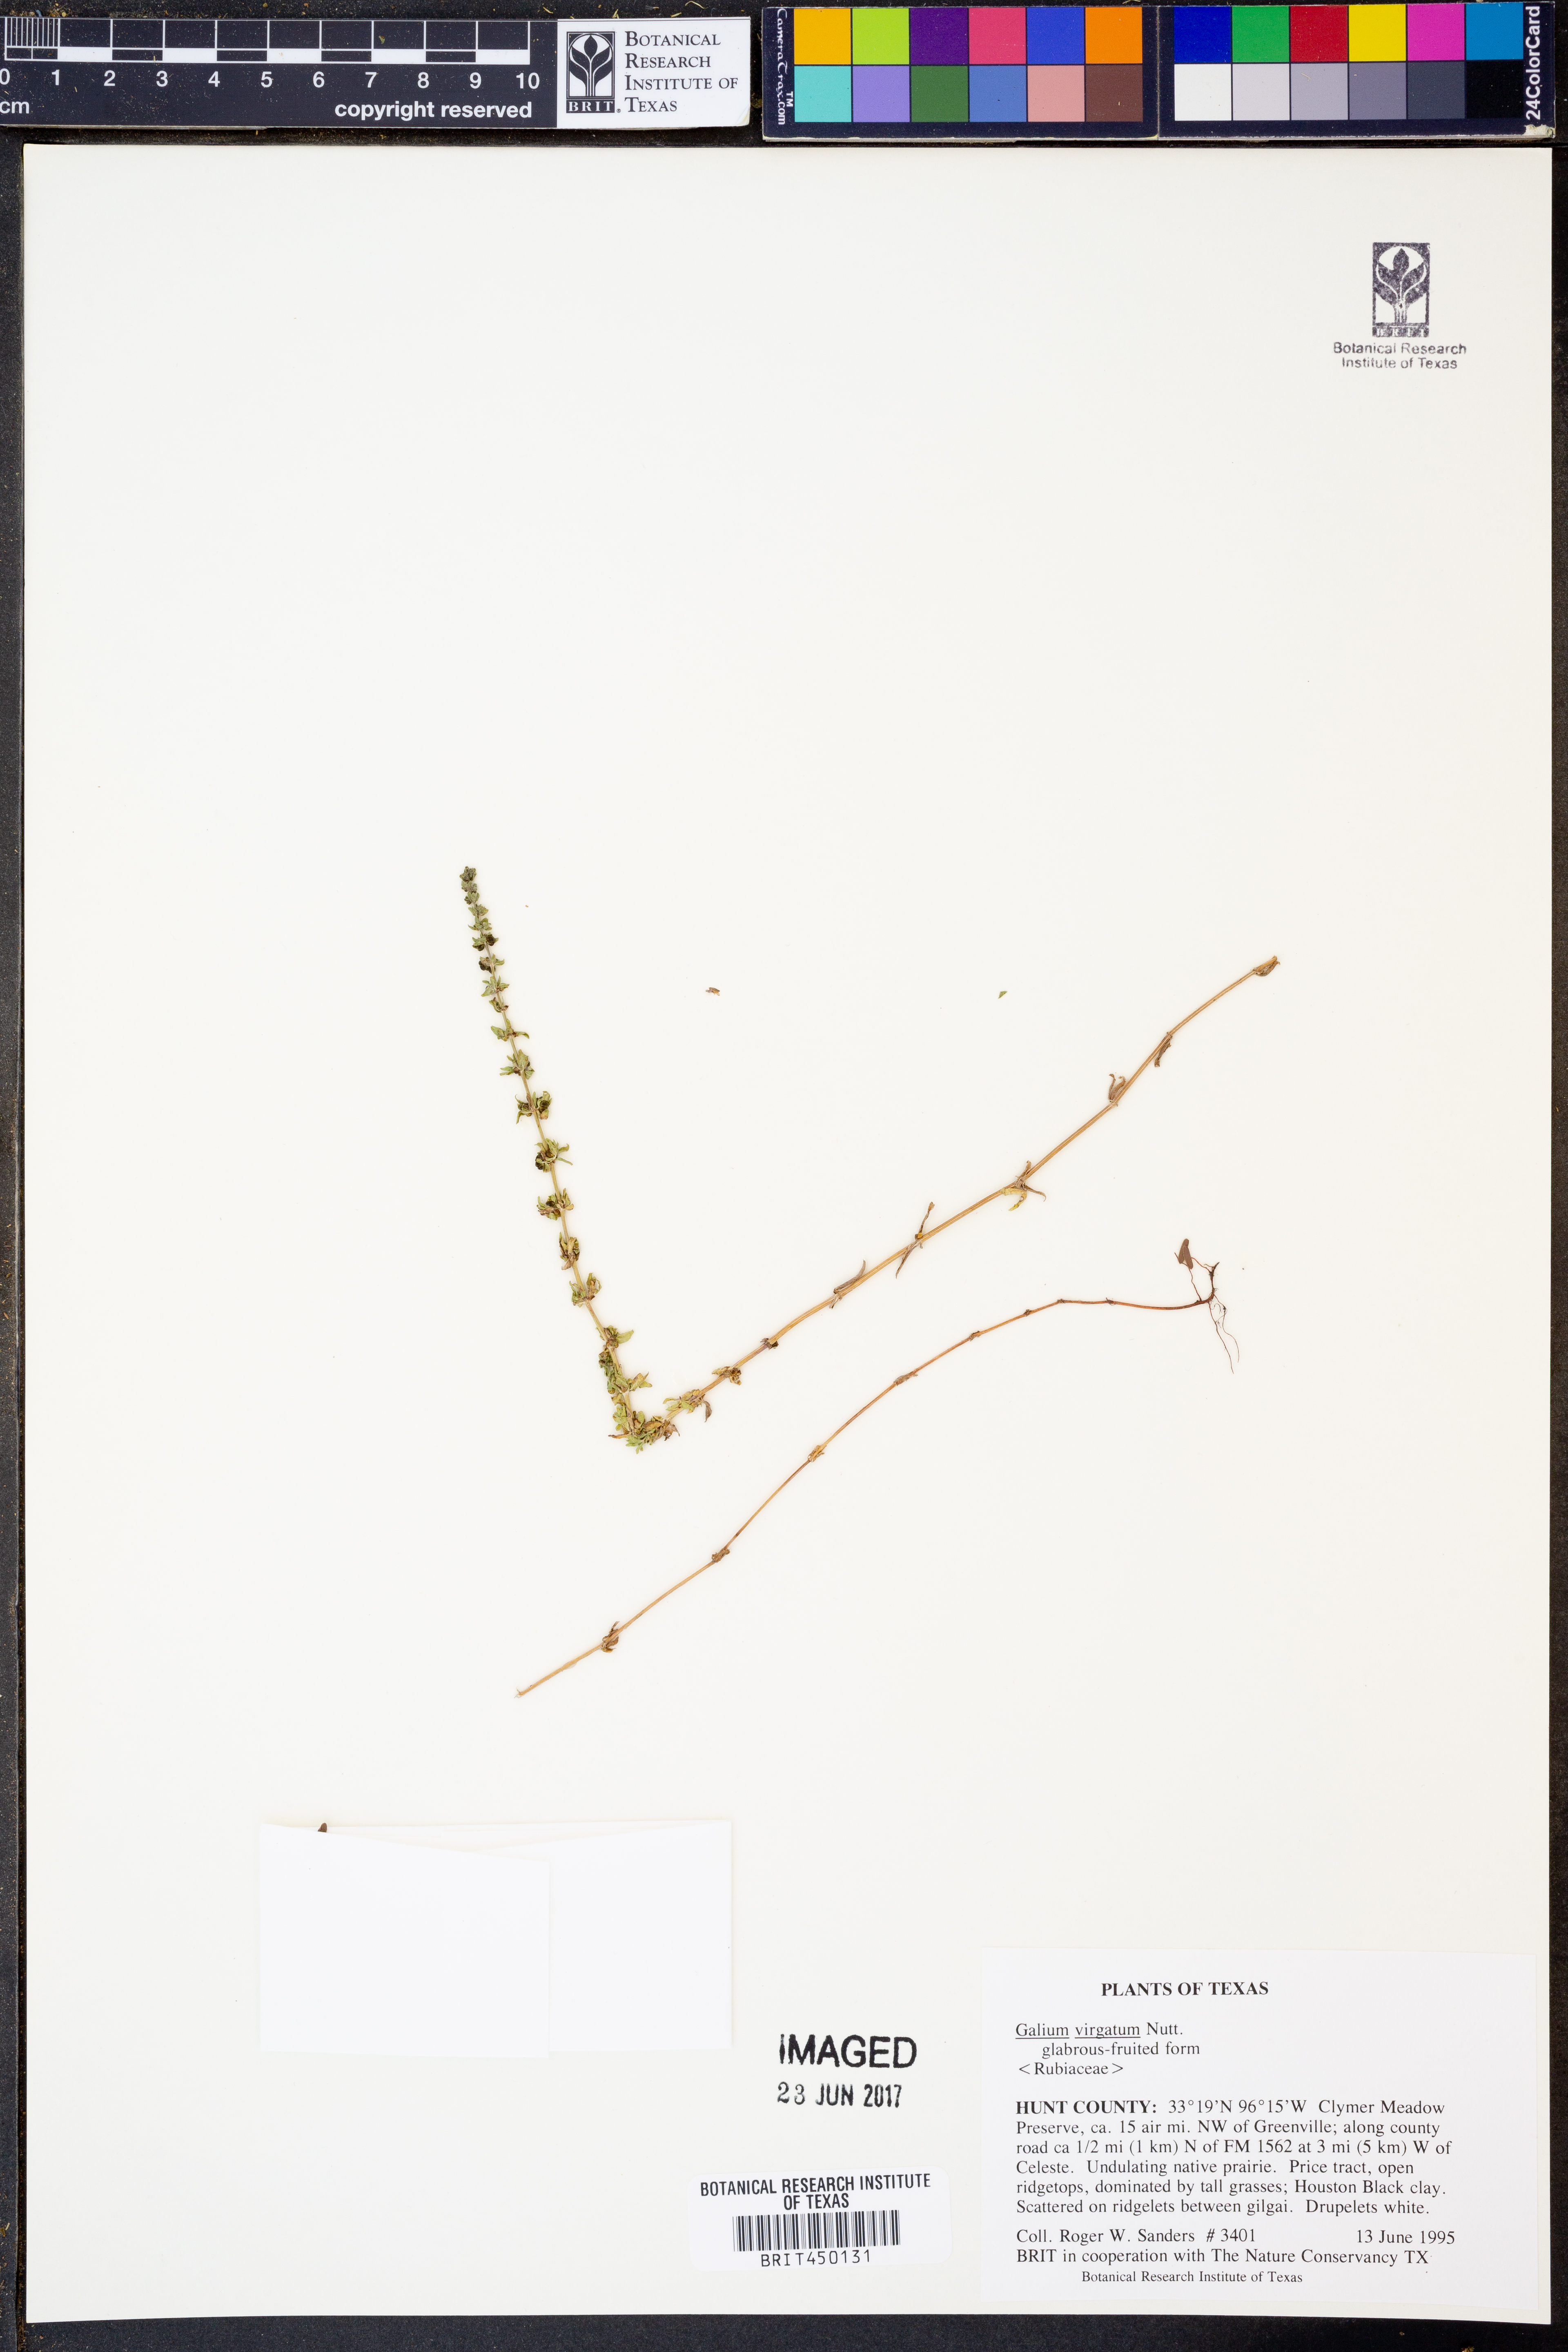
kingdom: Plantae
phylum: Tracheophyta
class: Magnoliopsida
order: Gentianales
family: Rubiaceae
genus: Galium
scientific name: Galium virgatum
